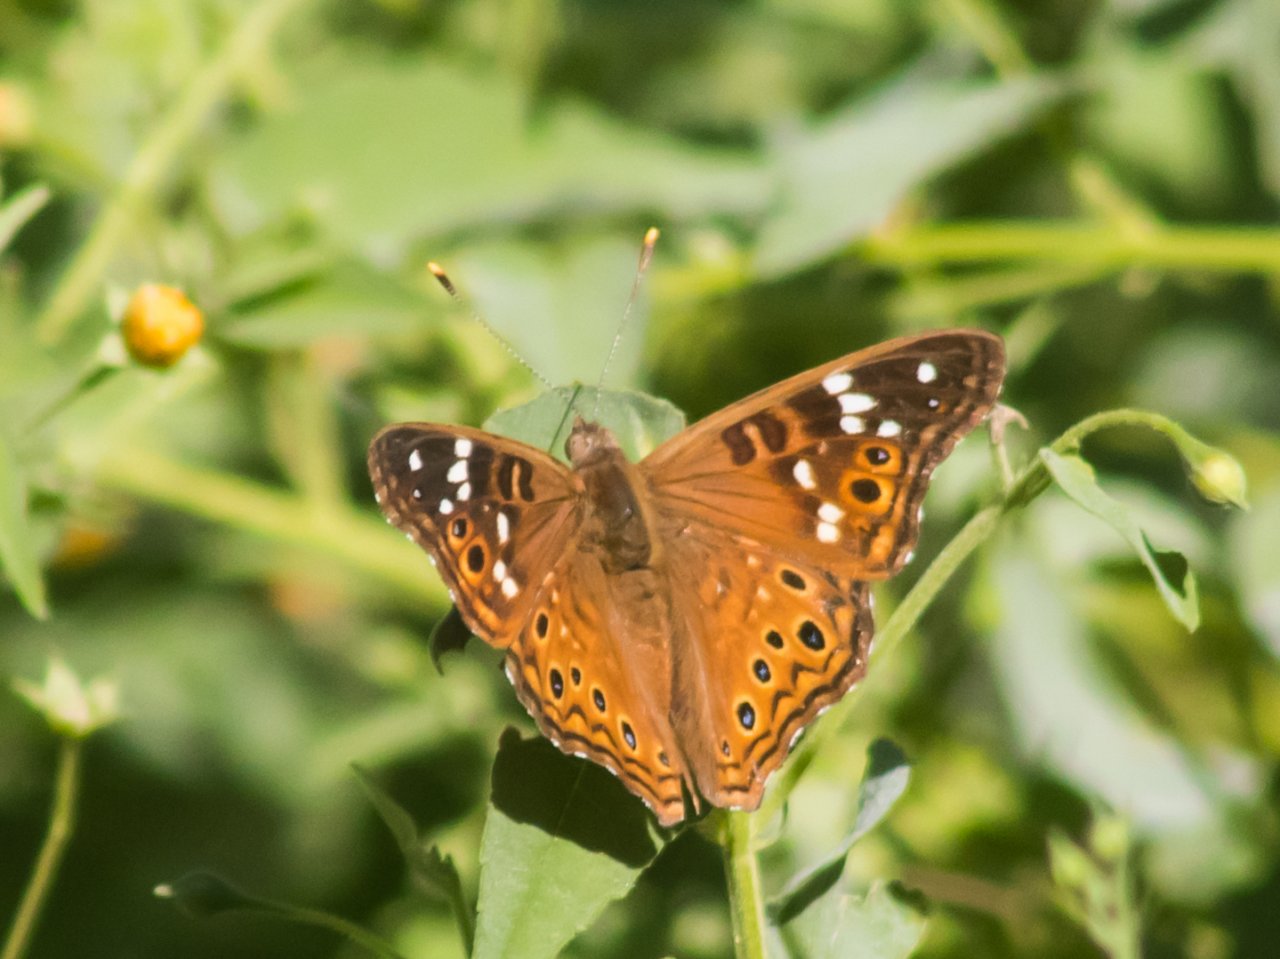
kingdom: Animalia
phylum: Arthropoda
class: Insecta
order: Lepidoptera
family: Nymphalidae
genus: Asterocampa
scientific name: Asterocampa leilia
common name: Empress Leilia
